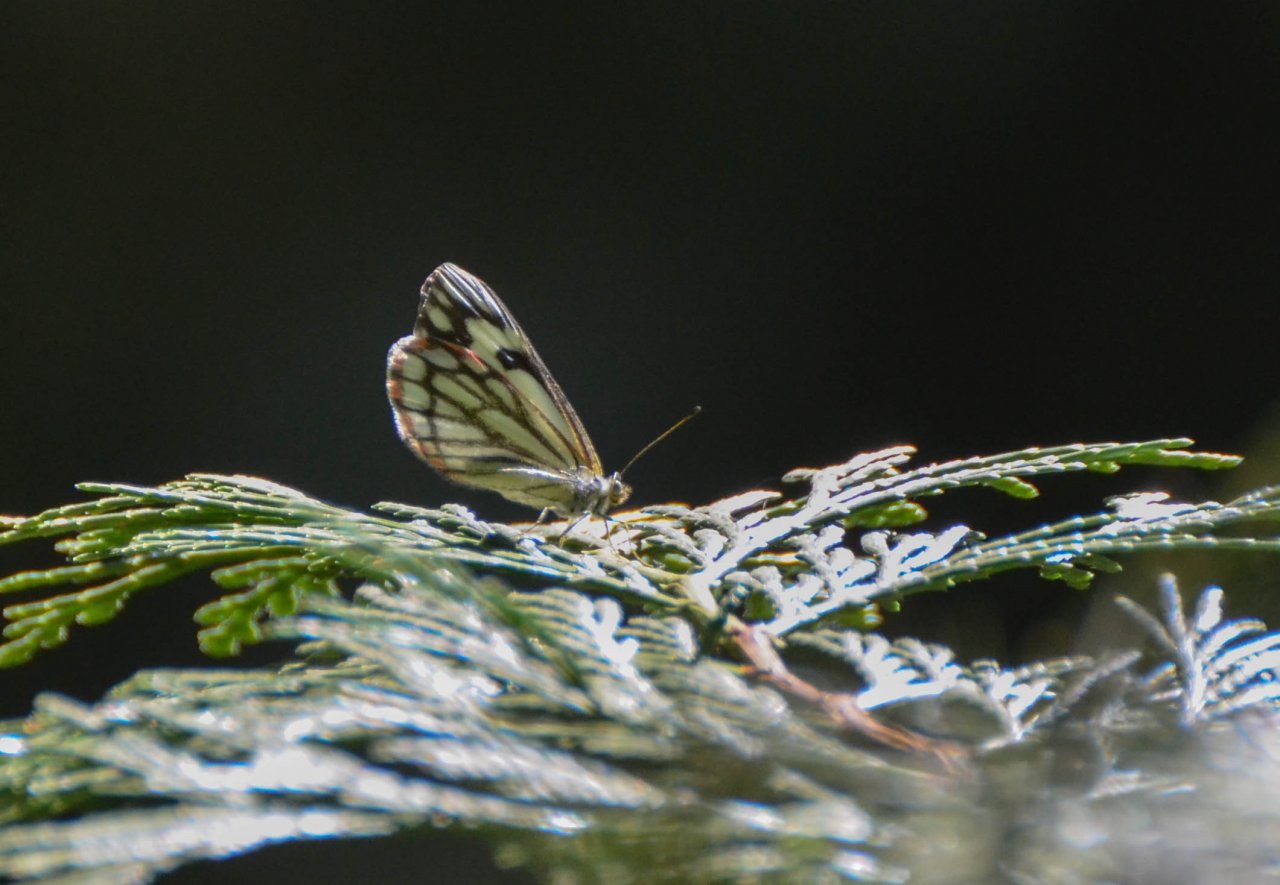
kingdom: Animalia
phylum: Arthropoda
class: Insecta
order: Lepidoptera
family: Pieridae
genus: Neophasia
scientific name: Neophasia menapia
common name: Pine White
